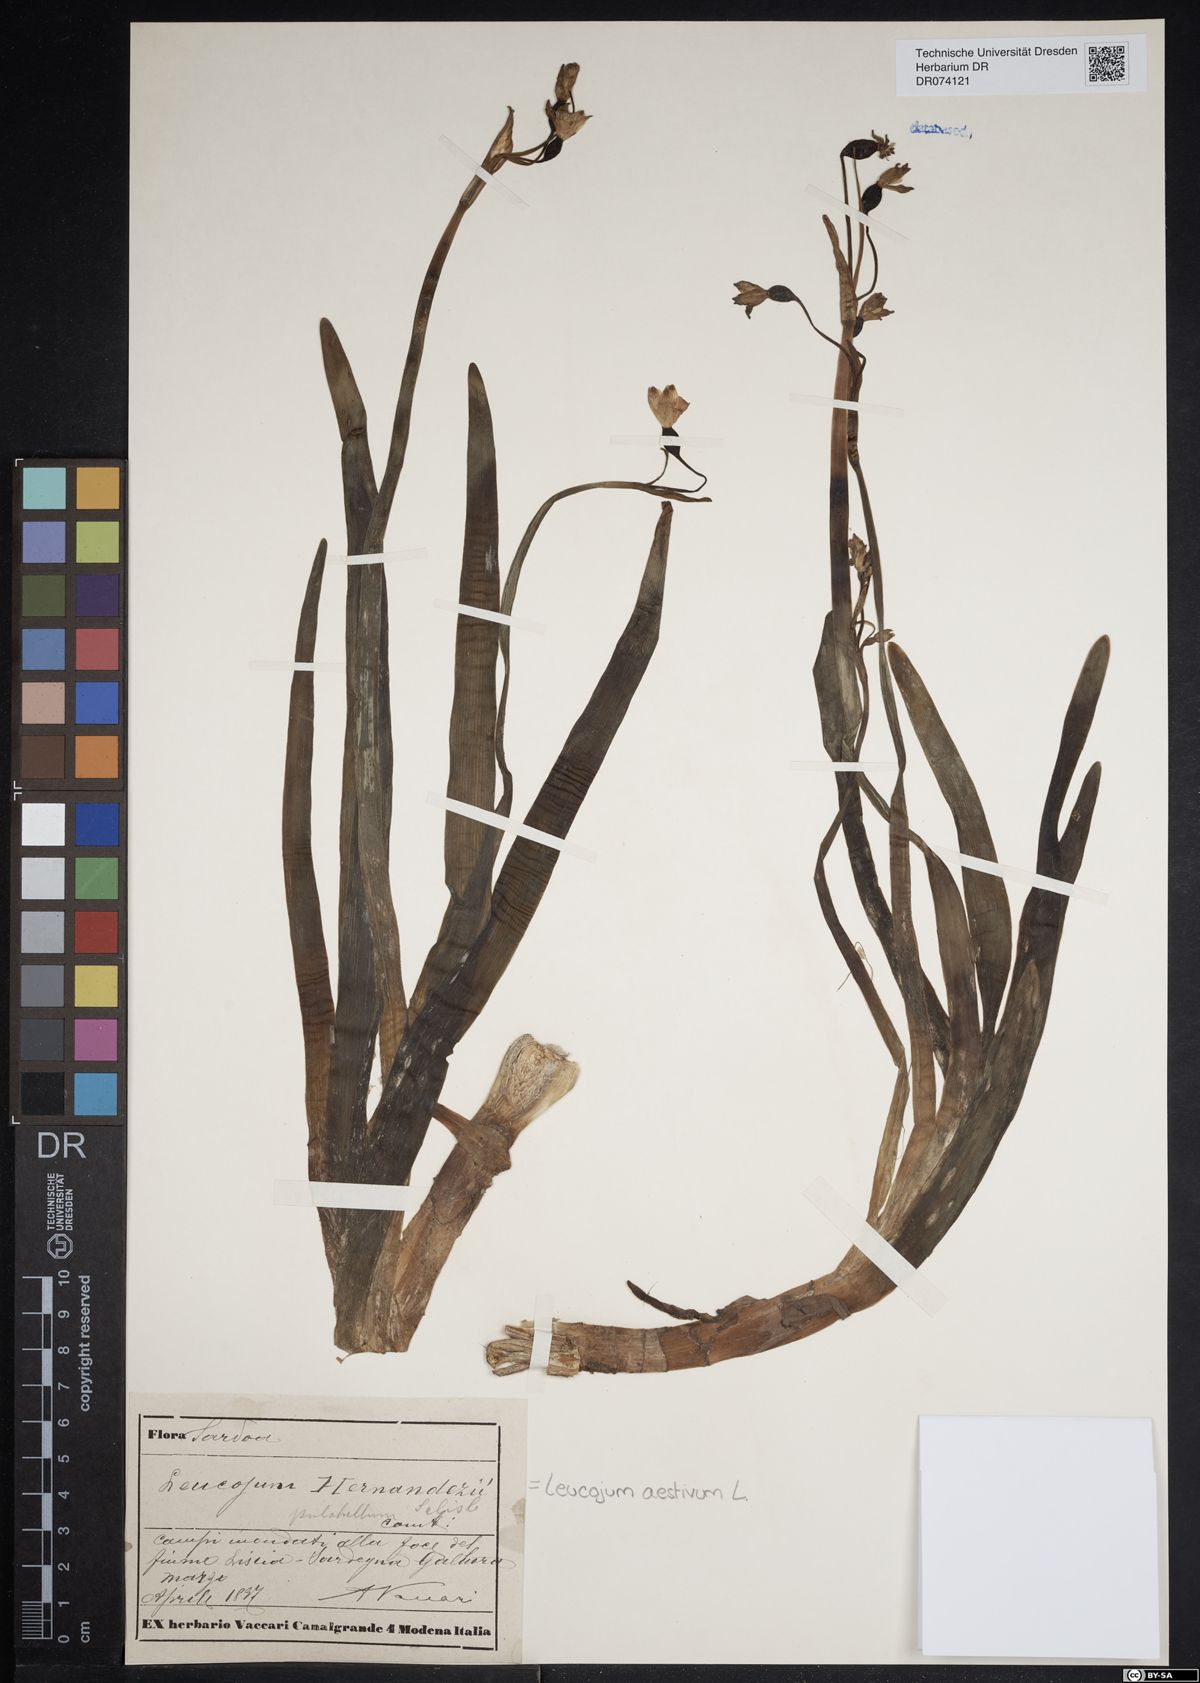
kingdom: Plantae
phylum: Tracheophyta
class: Liliopsida
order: Asparagales
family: Amaryllidaceae
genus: Leucojum
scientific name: Leucojum aestivum
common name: Summer snowflake
